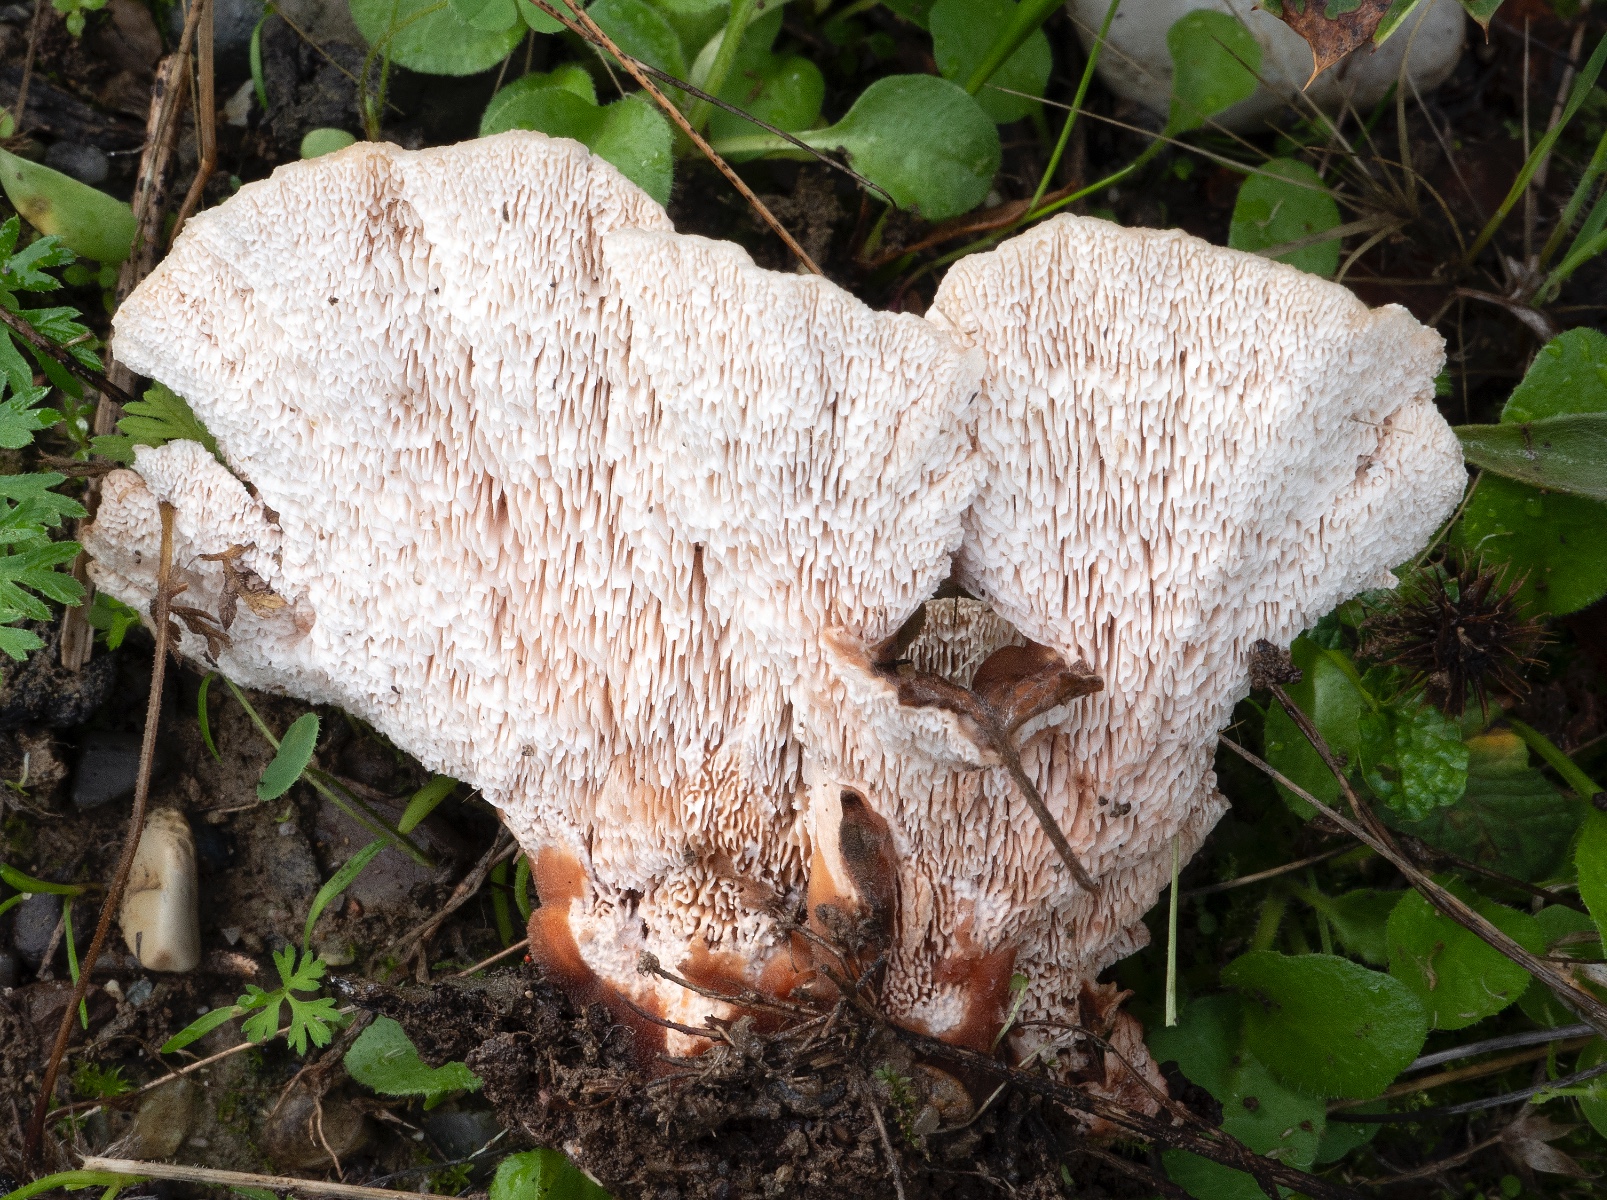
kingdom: Fungi
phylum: Basidiomycota
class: Agaricomycetes
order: Polyporales
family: Podoscyphaceae
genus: Abortiporus
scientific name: Abortiporus biennis
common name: rødmende pjalteporesvamp
